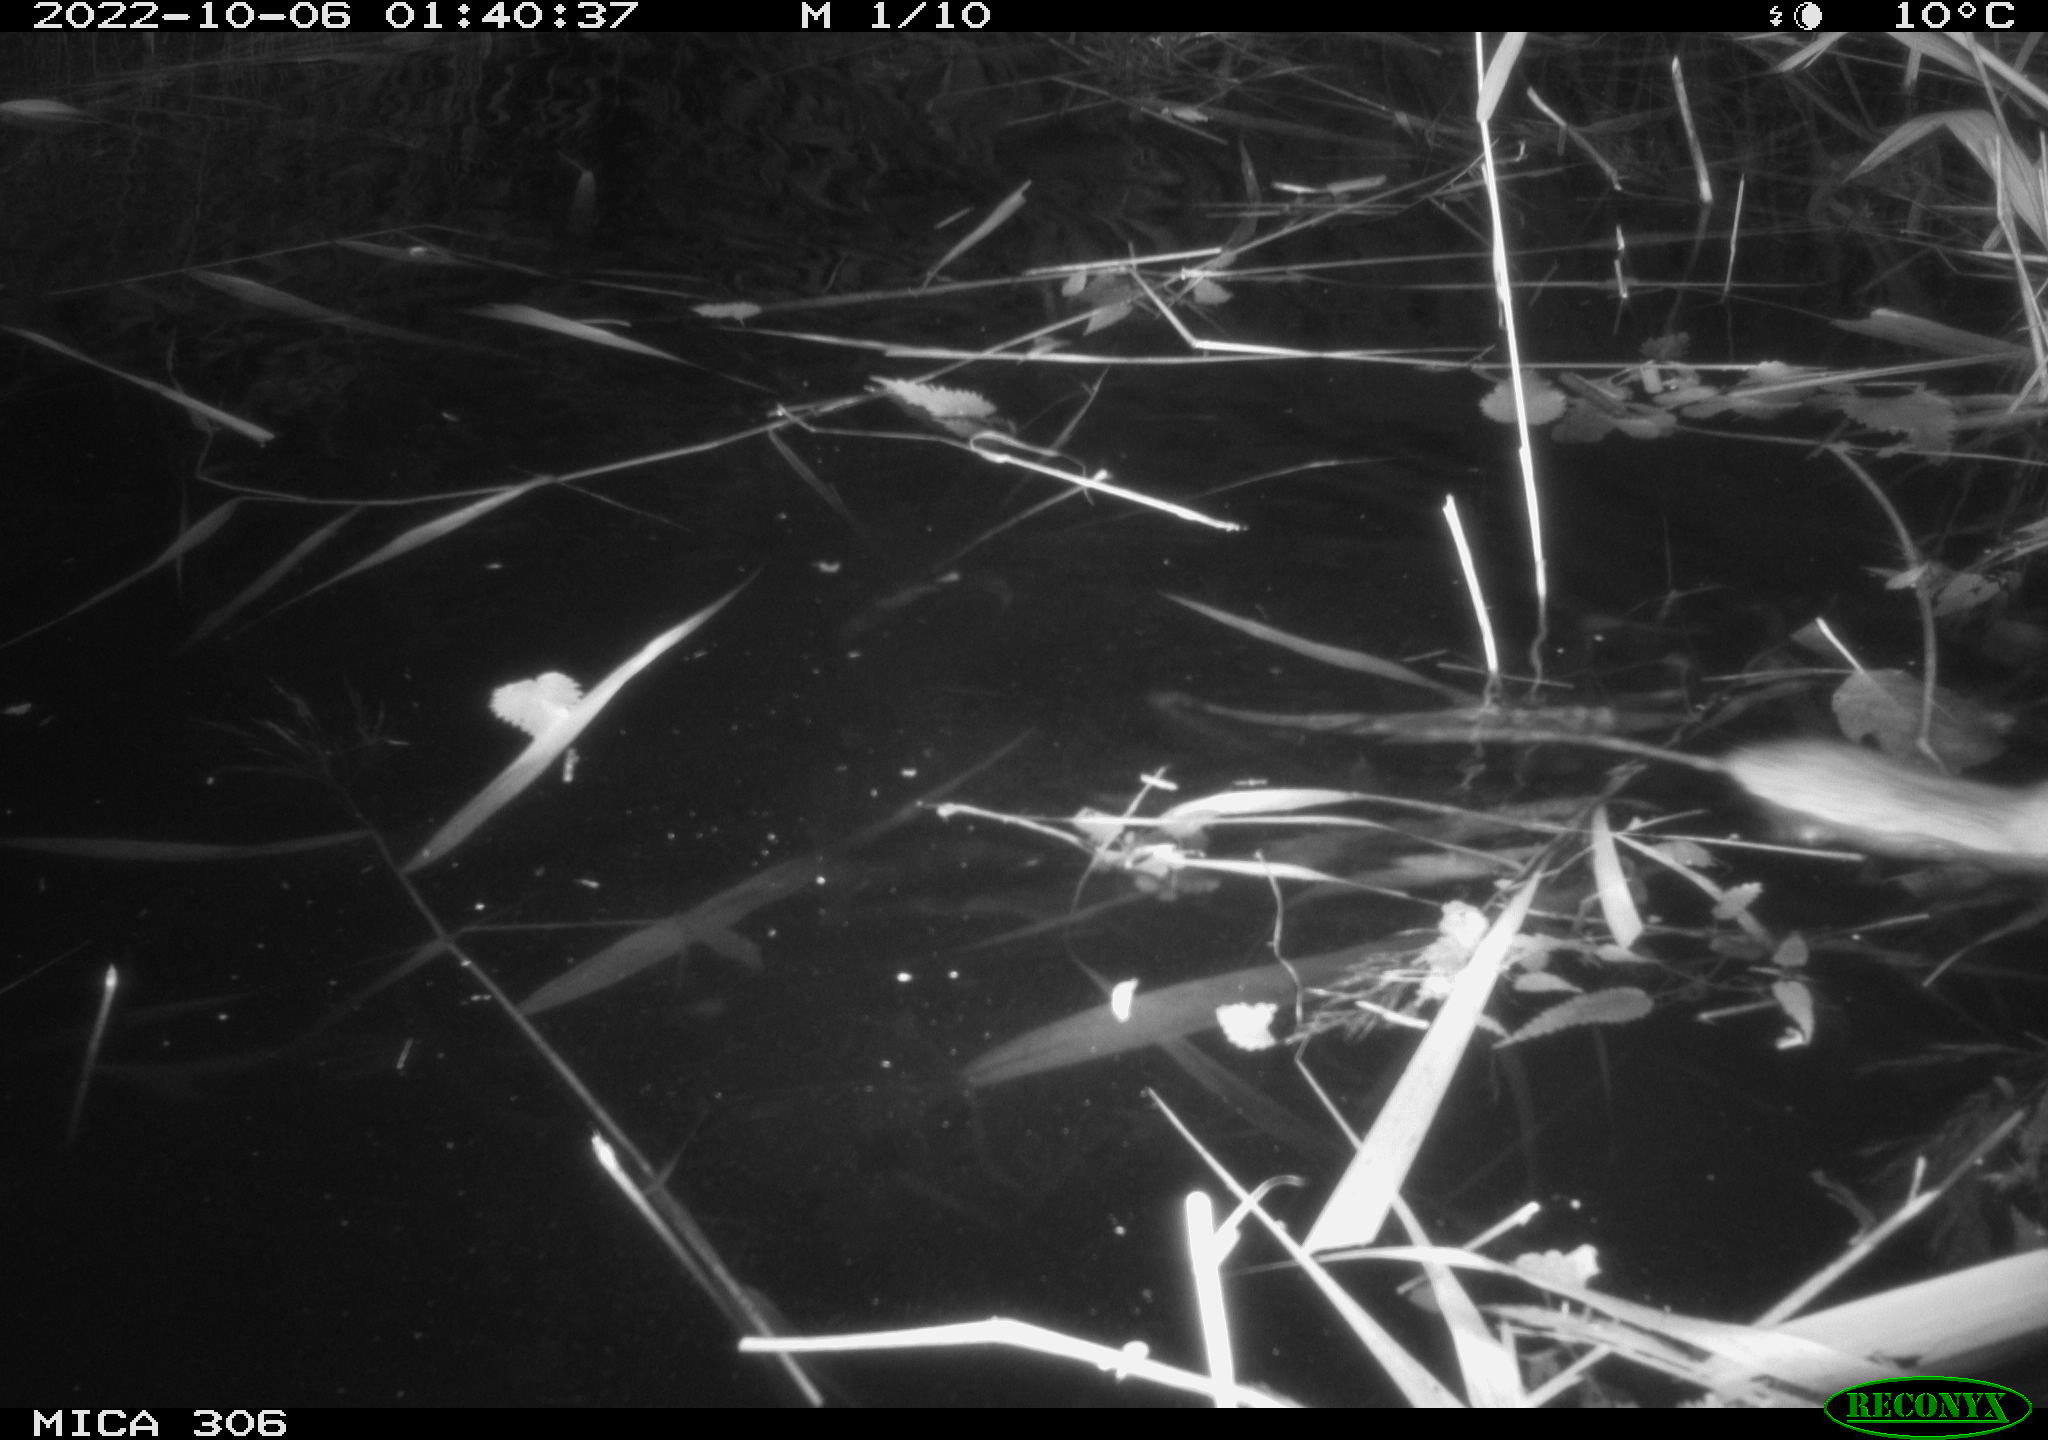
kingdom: Animalia
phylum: Chordata
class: Mammalia
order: Rodentia
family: Muridae
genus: Rattus
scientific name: Rattus norvegicus
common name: Brown rat
